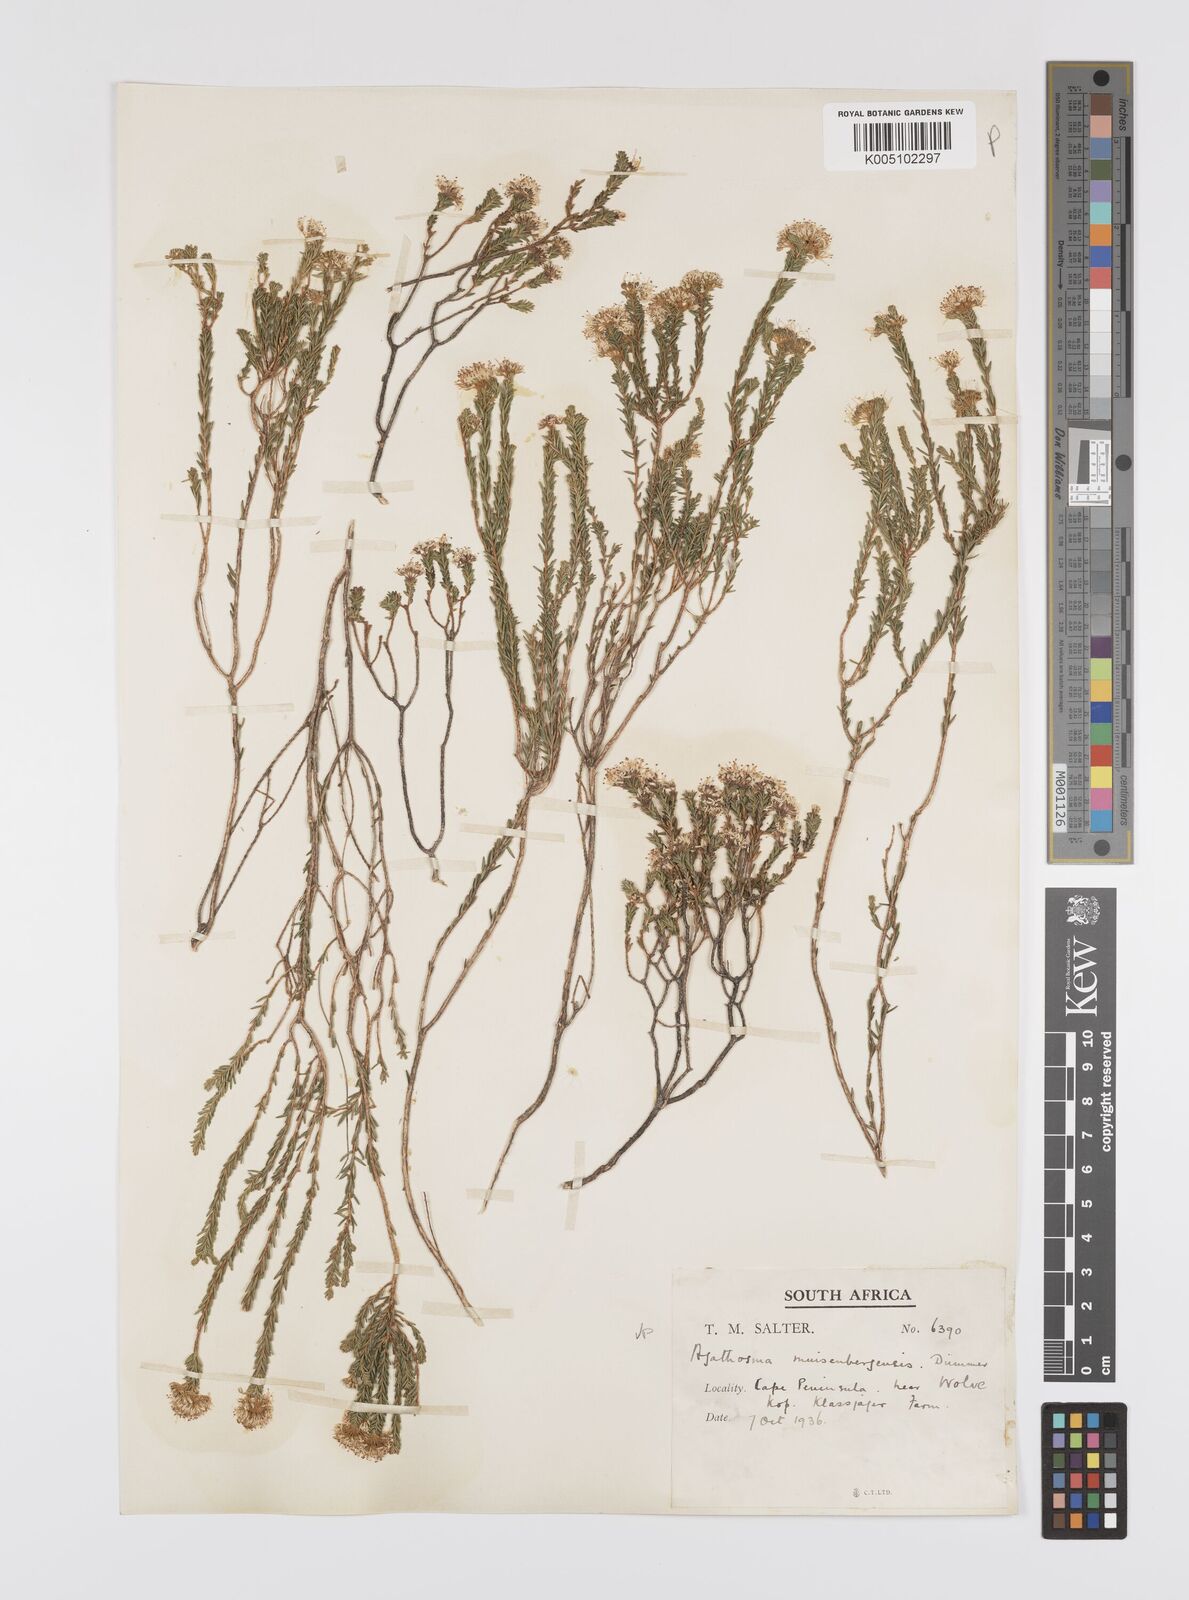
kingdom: Plantae
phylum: Tracheophyta
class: Magnoliopsida
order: Sapindales
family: Rutaceae
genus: Agathosma
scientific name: Agathosma capensis
